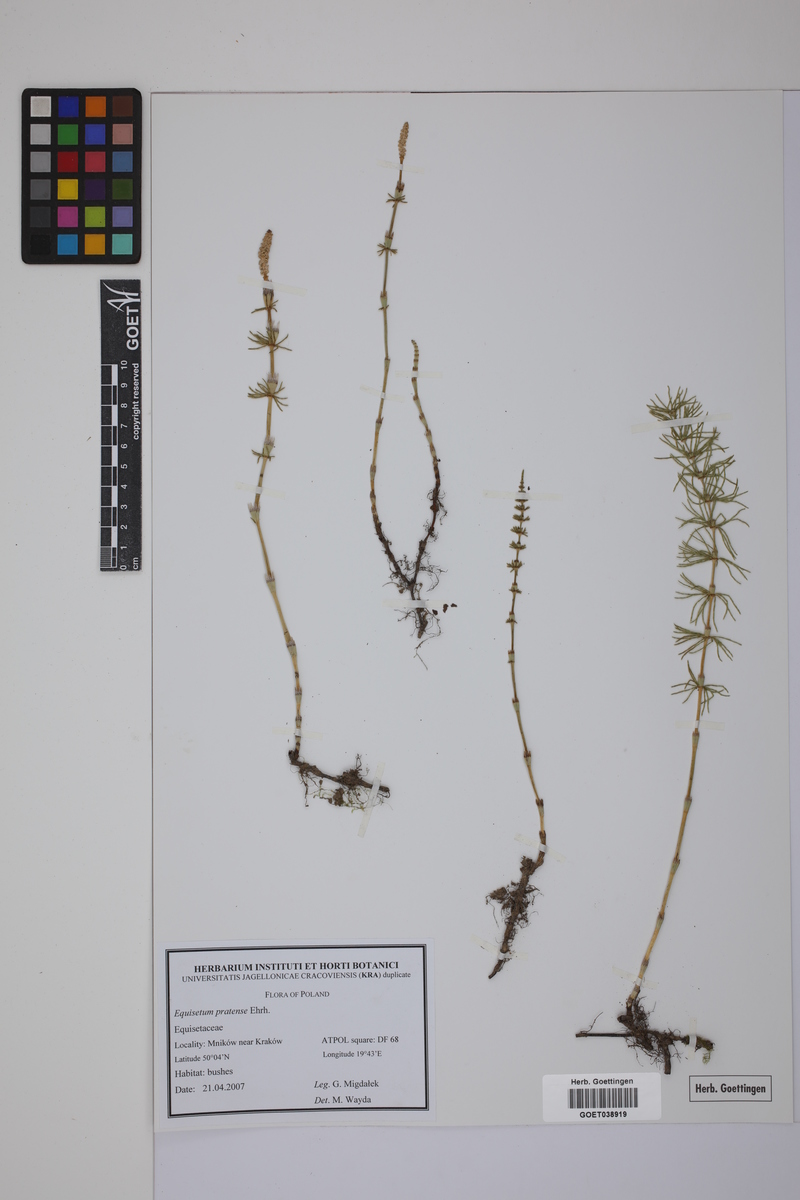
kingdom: Plantae
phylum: Tracheophyta
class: Polypodiopsida
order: Equisetales
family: Equisetaceae
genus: Equisetum
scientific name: Equisetum pratense
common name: Meadow horsetail
